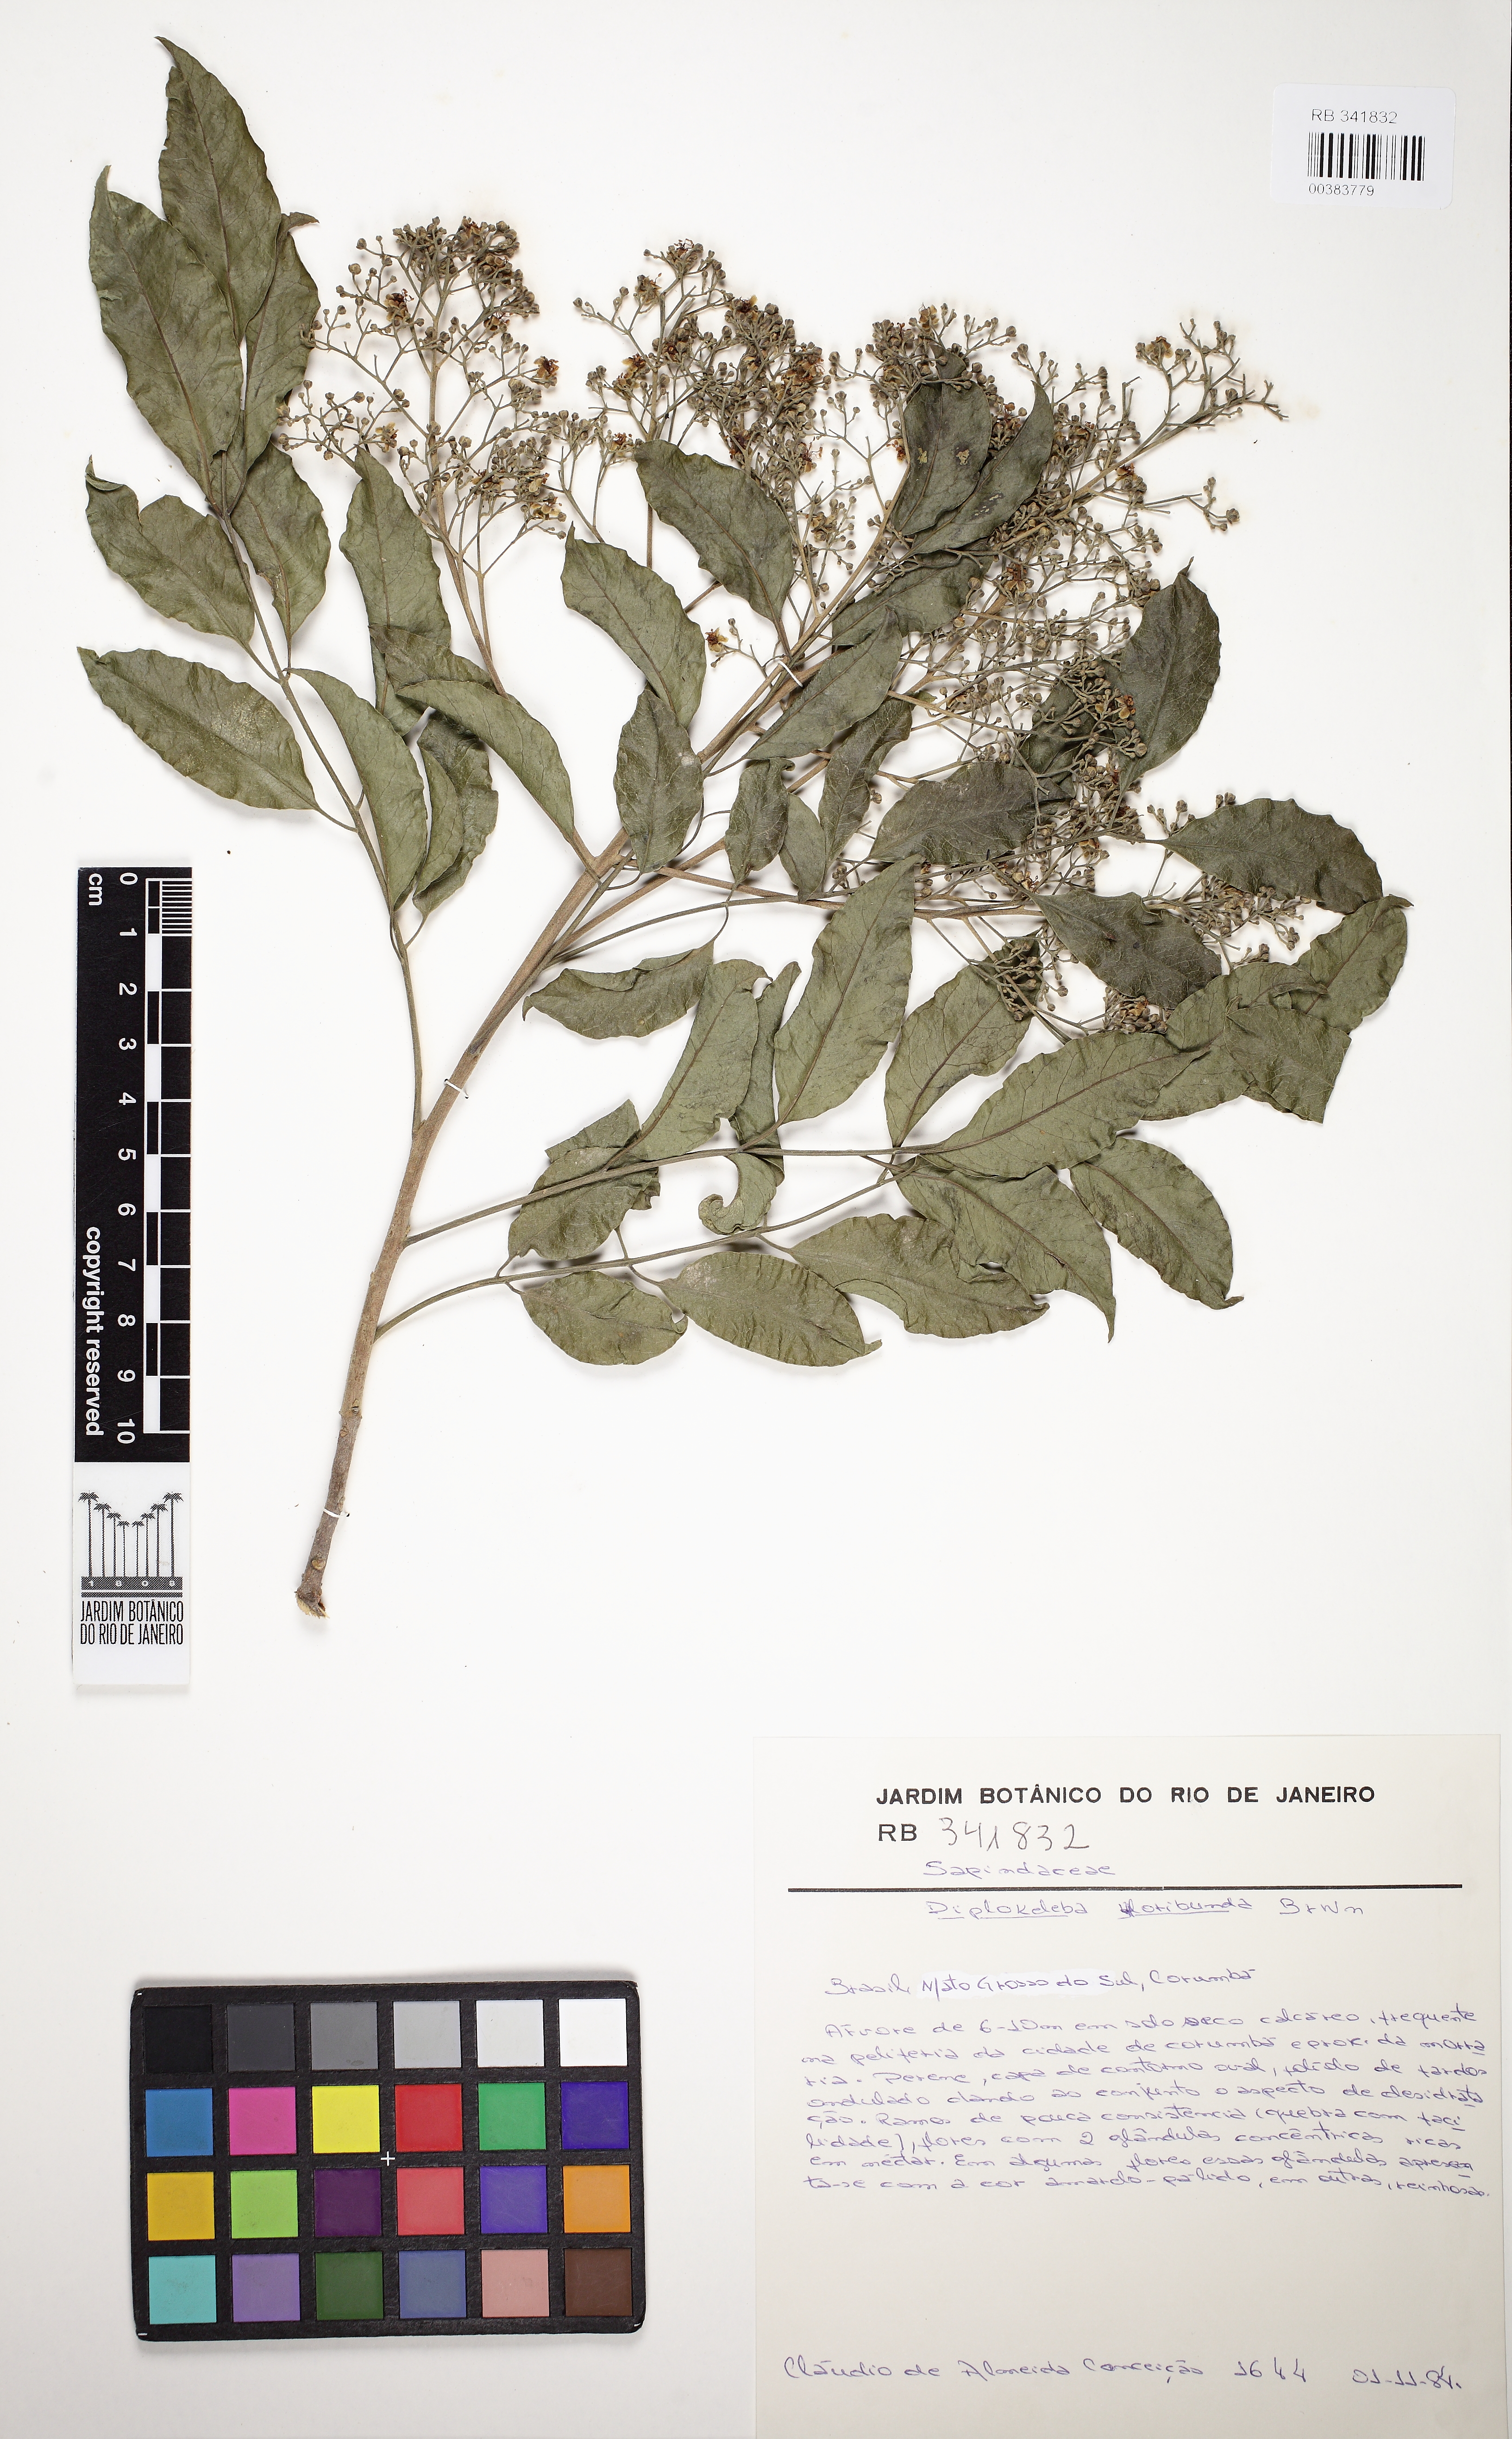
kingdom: Plantae
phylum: Tracheophyta
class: Magnoliopsida
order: Sapindales
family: Sapindaceae
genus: Diplokeleba
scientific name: Diplokeleba floribunda
